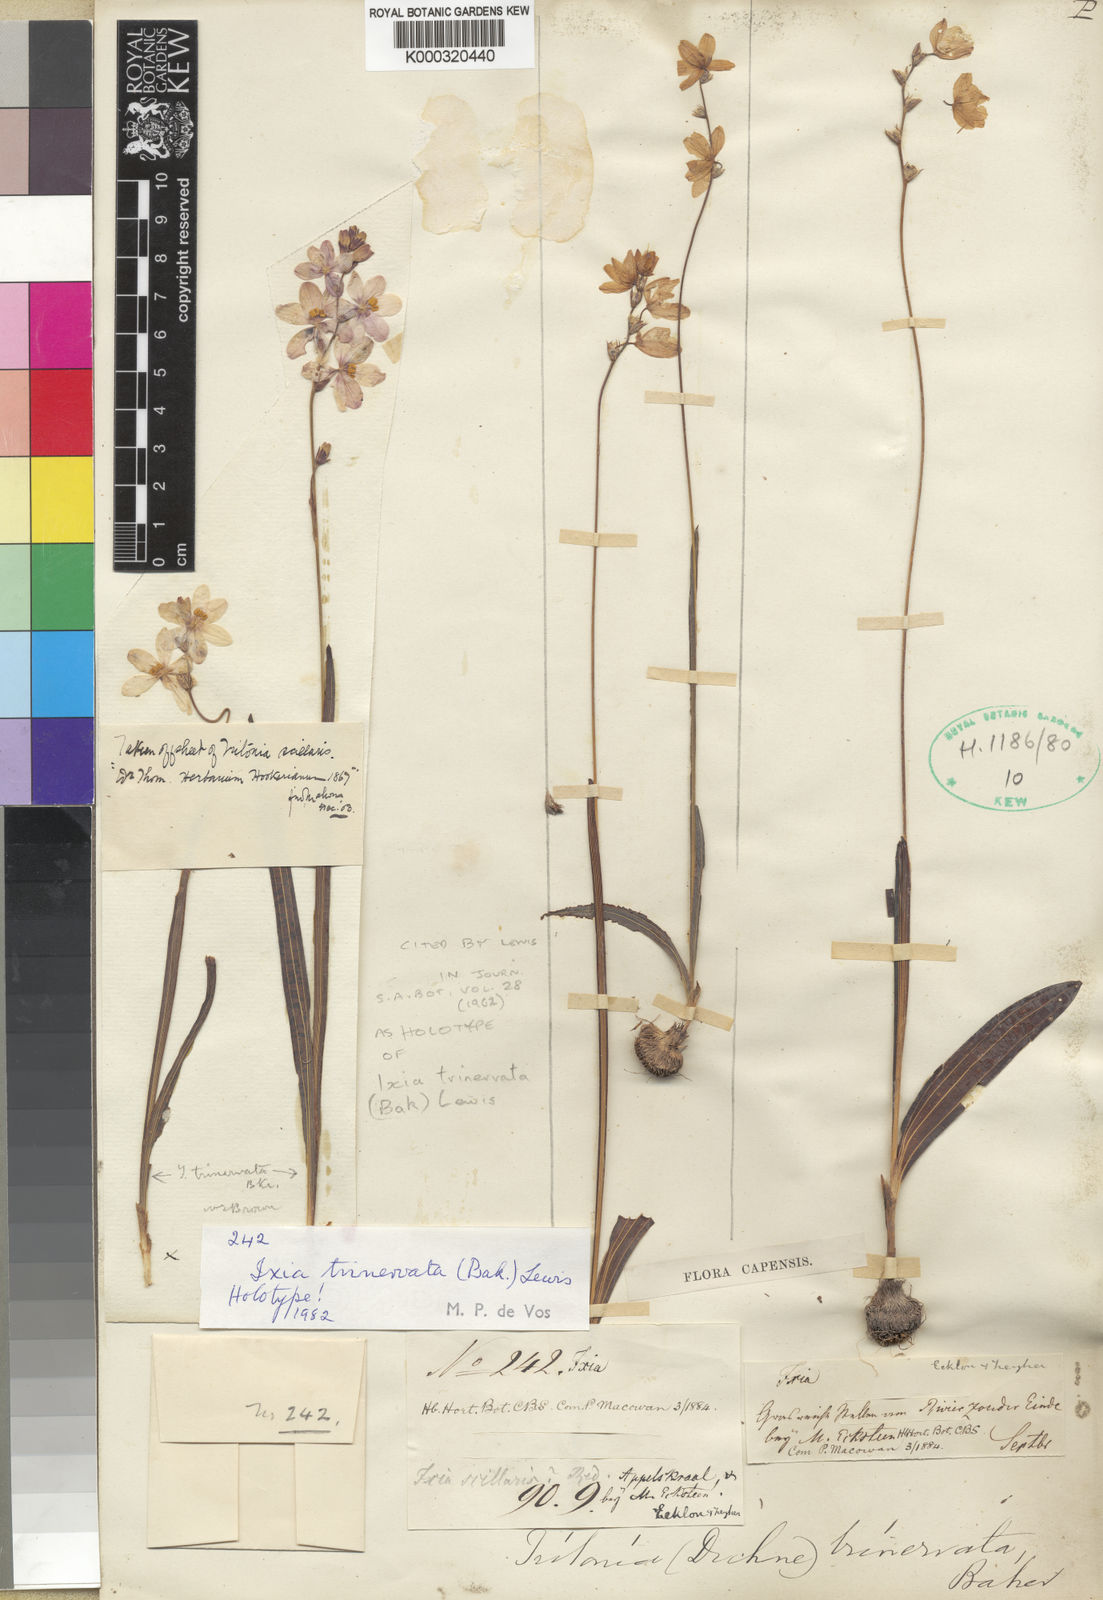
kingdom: Plantae
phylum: Tracheophyta
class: Liliopsida
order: Asparagales
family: Iridaceae
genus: Ixia
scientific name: Ixia trinervata
